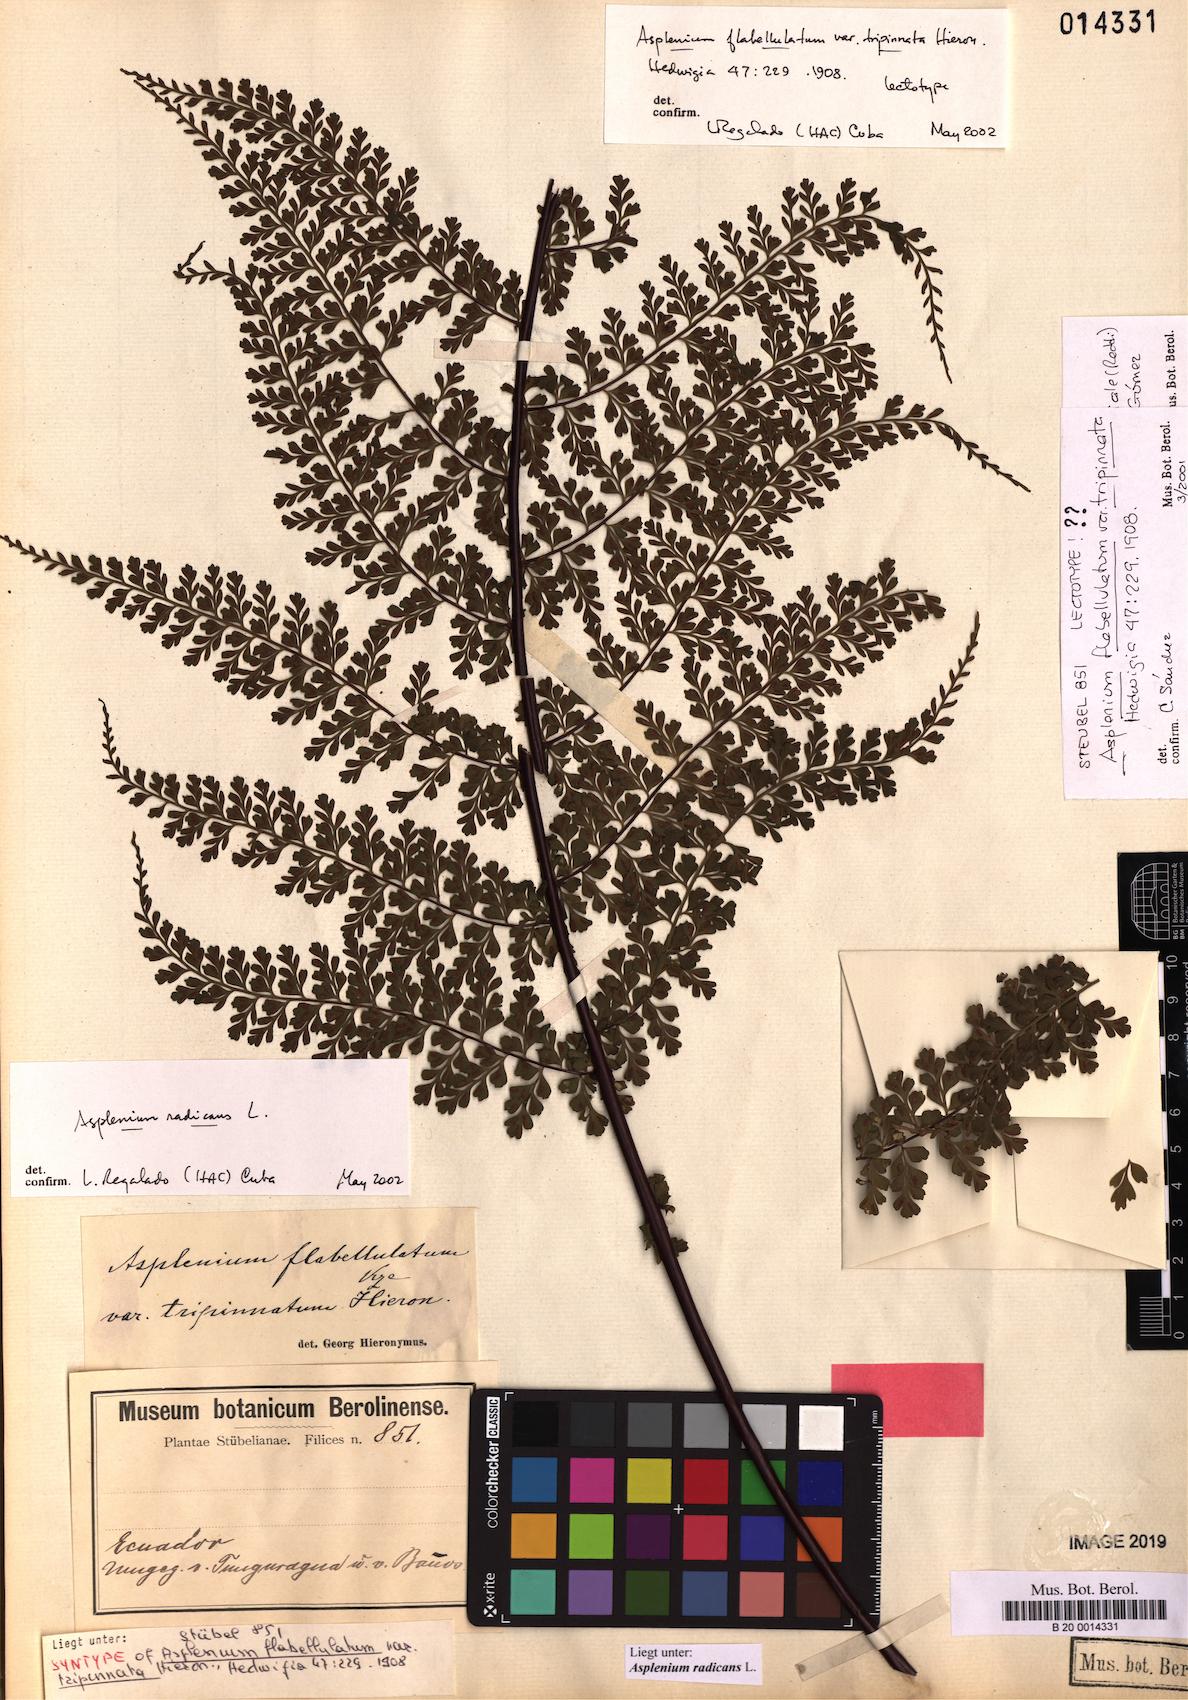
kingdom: Plantae
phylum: Tracheophyta
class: Polypodiopsida
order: Polypodiales
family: Aspleniaceae
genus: Asplenium
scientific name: Asplenium radicans
